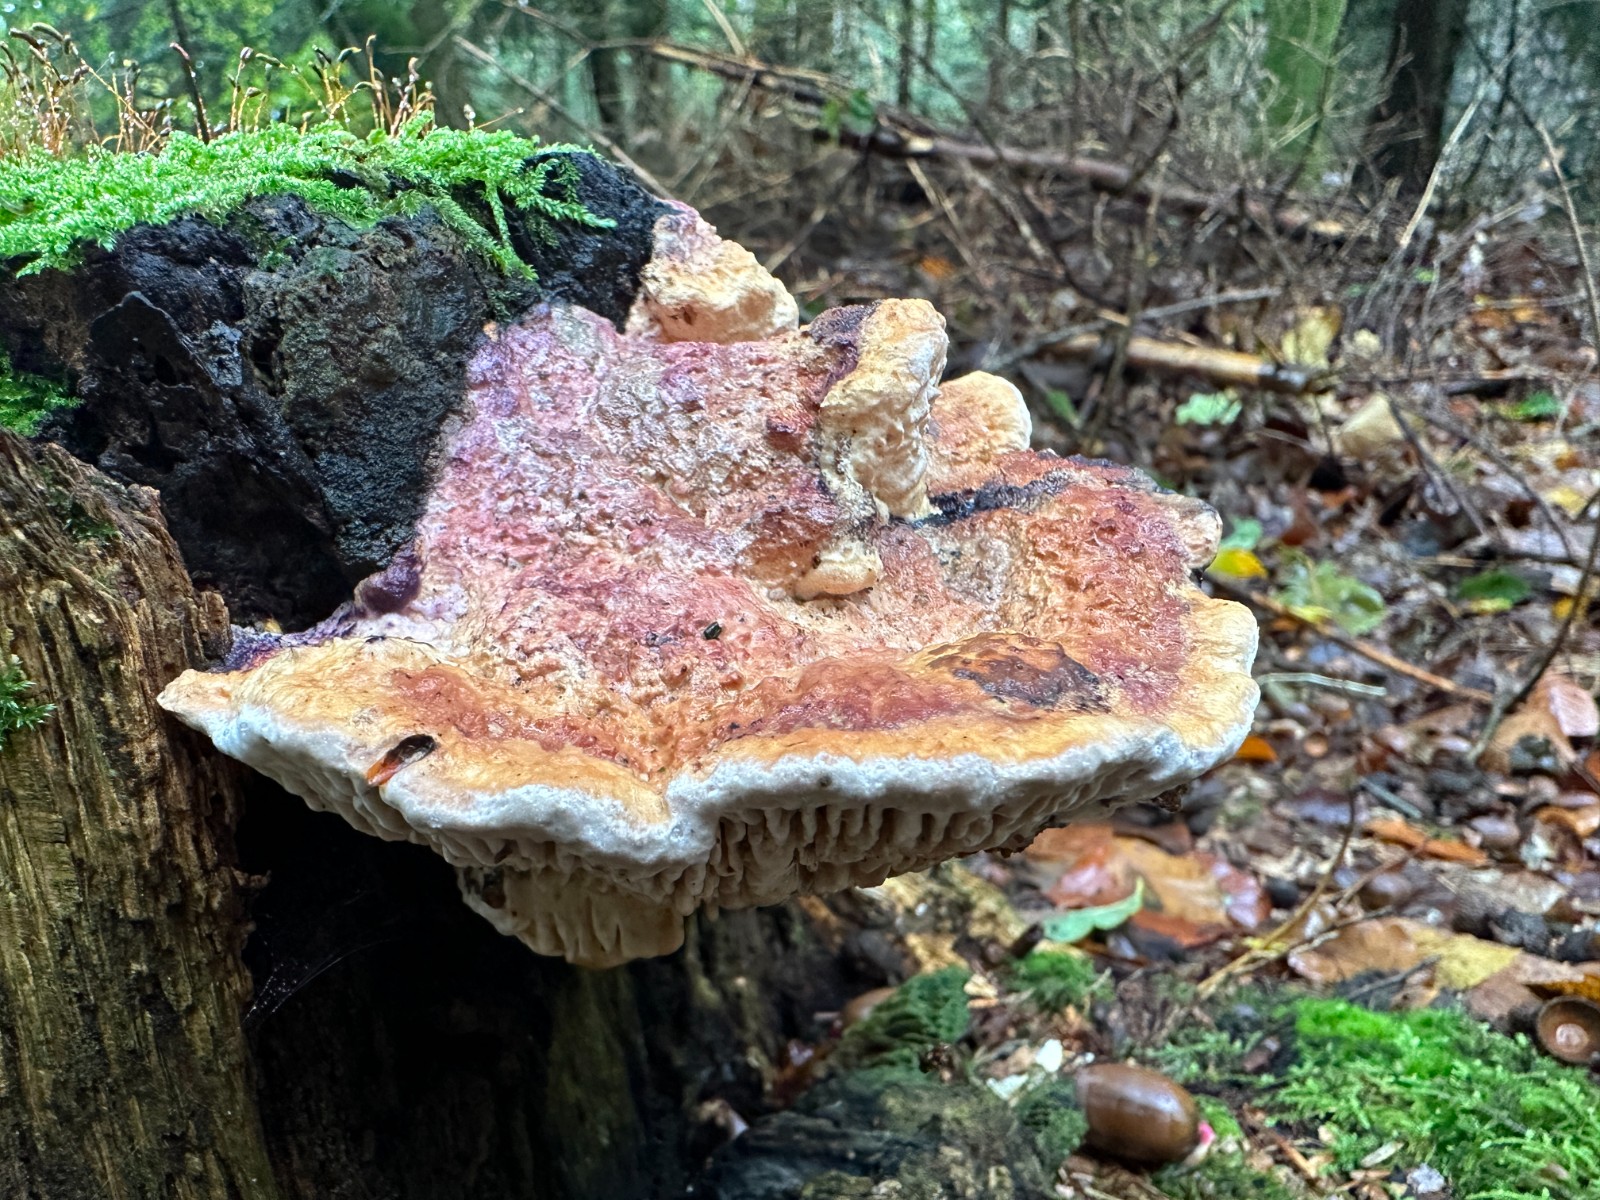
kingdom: Fungi
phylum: Basidiomycota
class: Agaricomycetes
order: Polyporales
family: Fomitopsidaceae
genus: Daedalea
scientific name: Daedalea quercina
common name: ege-labyrintsvamp
